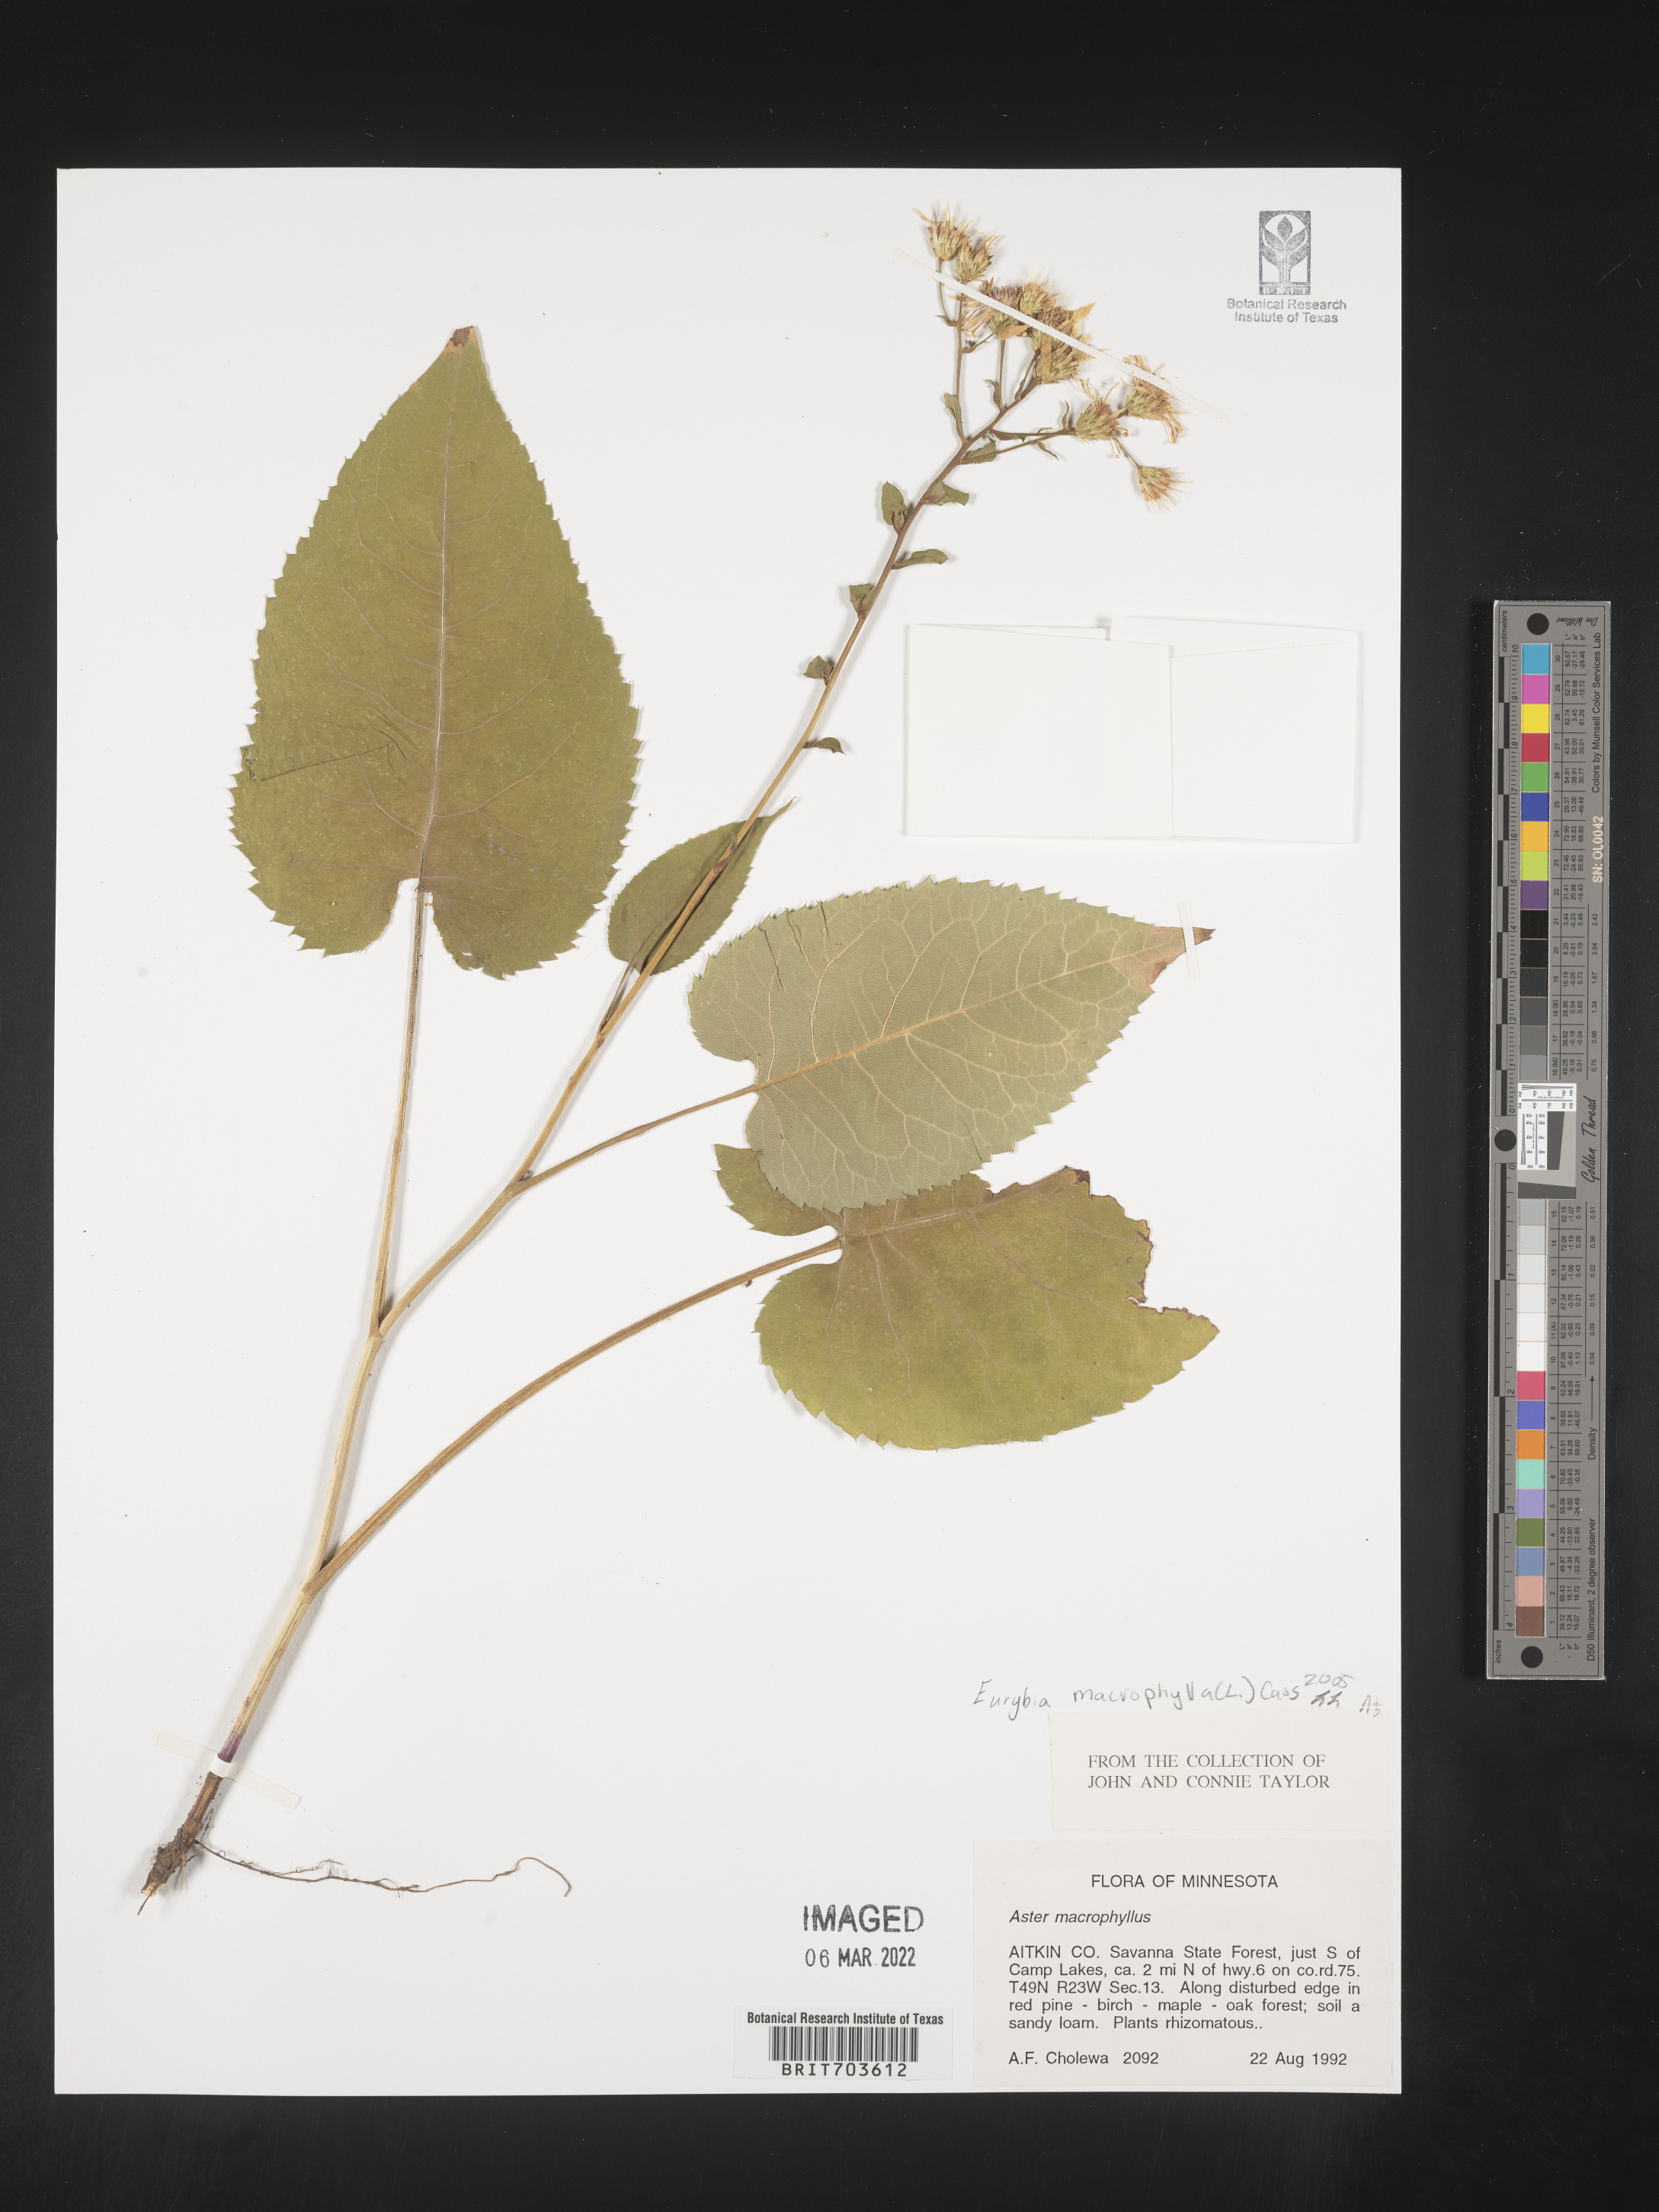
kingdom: Plantae
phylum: Tracheophyta
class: Magnoliopsida
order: Asterales
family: Asteraceae
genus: Eurybia
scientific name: Eurybia macrophylla
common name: Big-leaved aster
